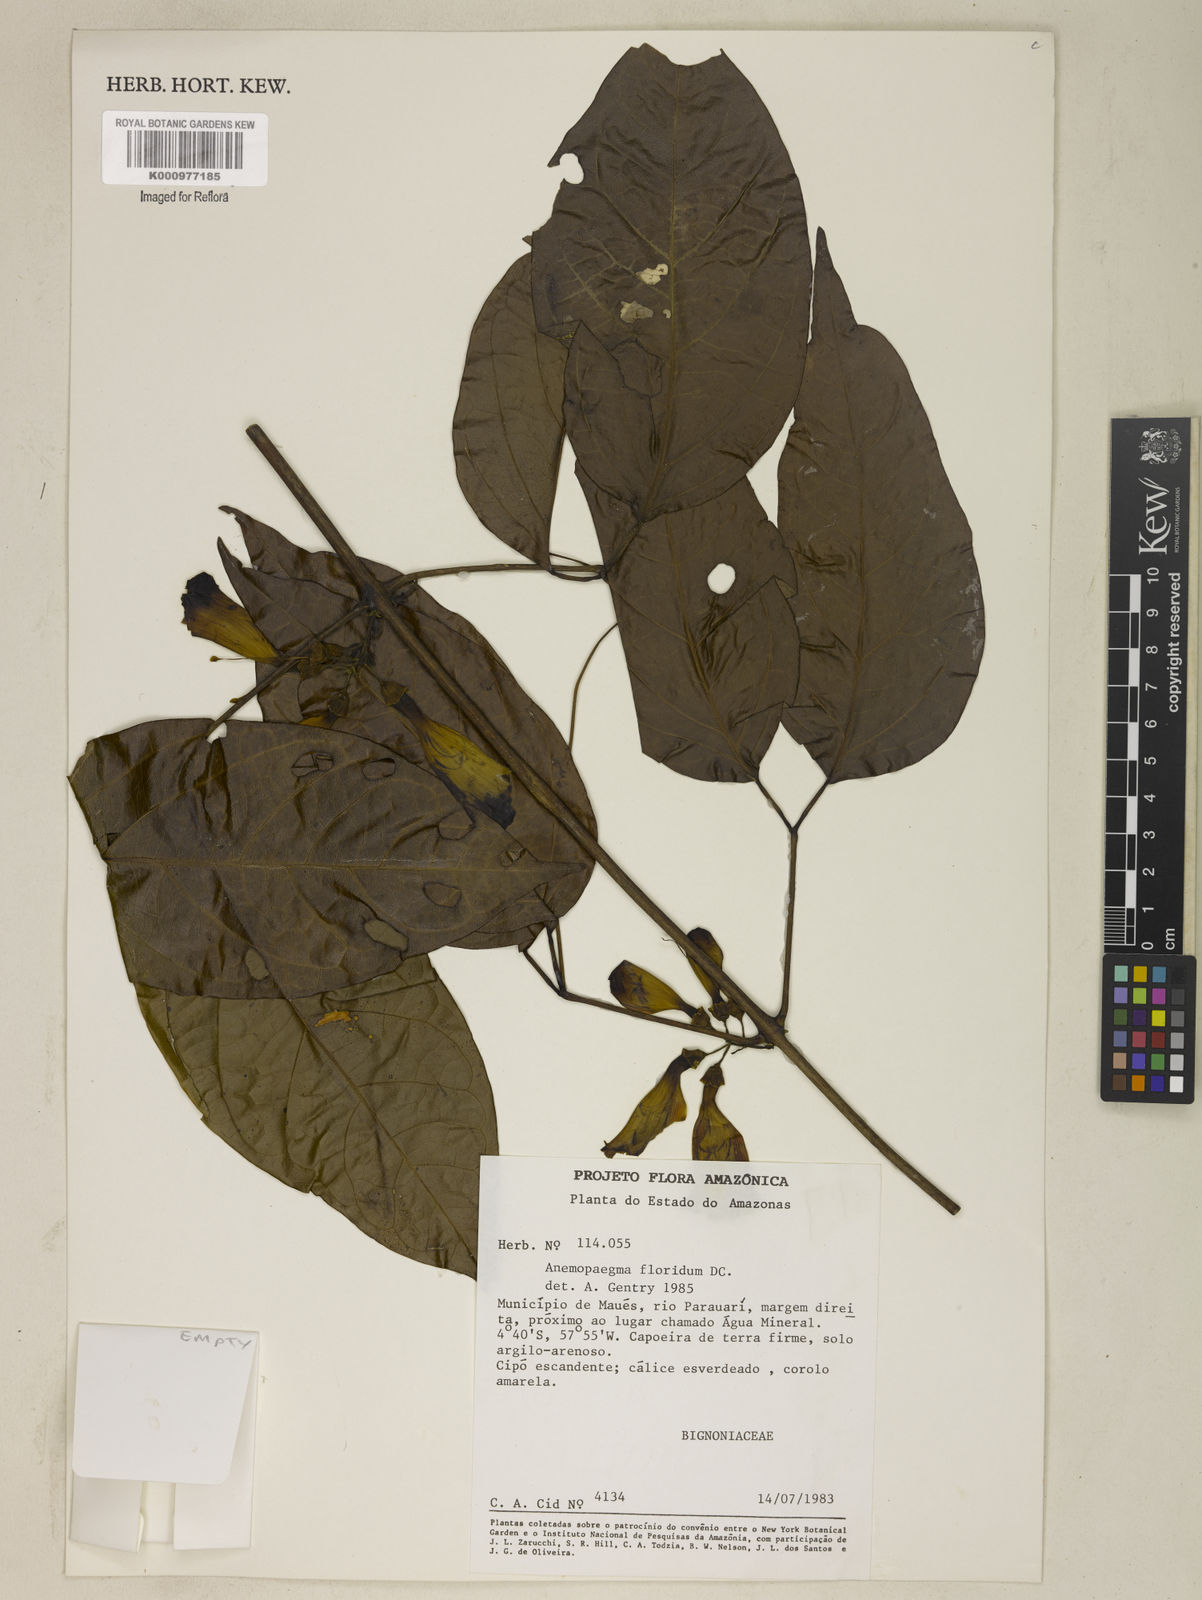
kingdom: Plantae
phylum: Tracheophyta
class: Magnoliopsida
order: Lamiales
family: Bignoniaceae
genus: Anemopaegma
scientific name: Anemopaegma floridum
